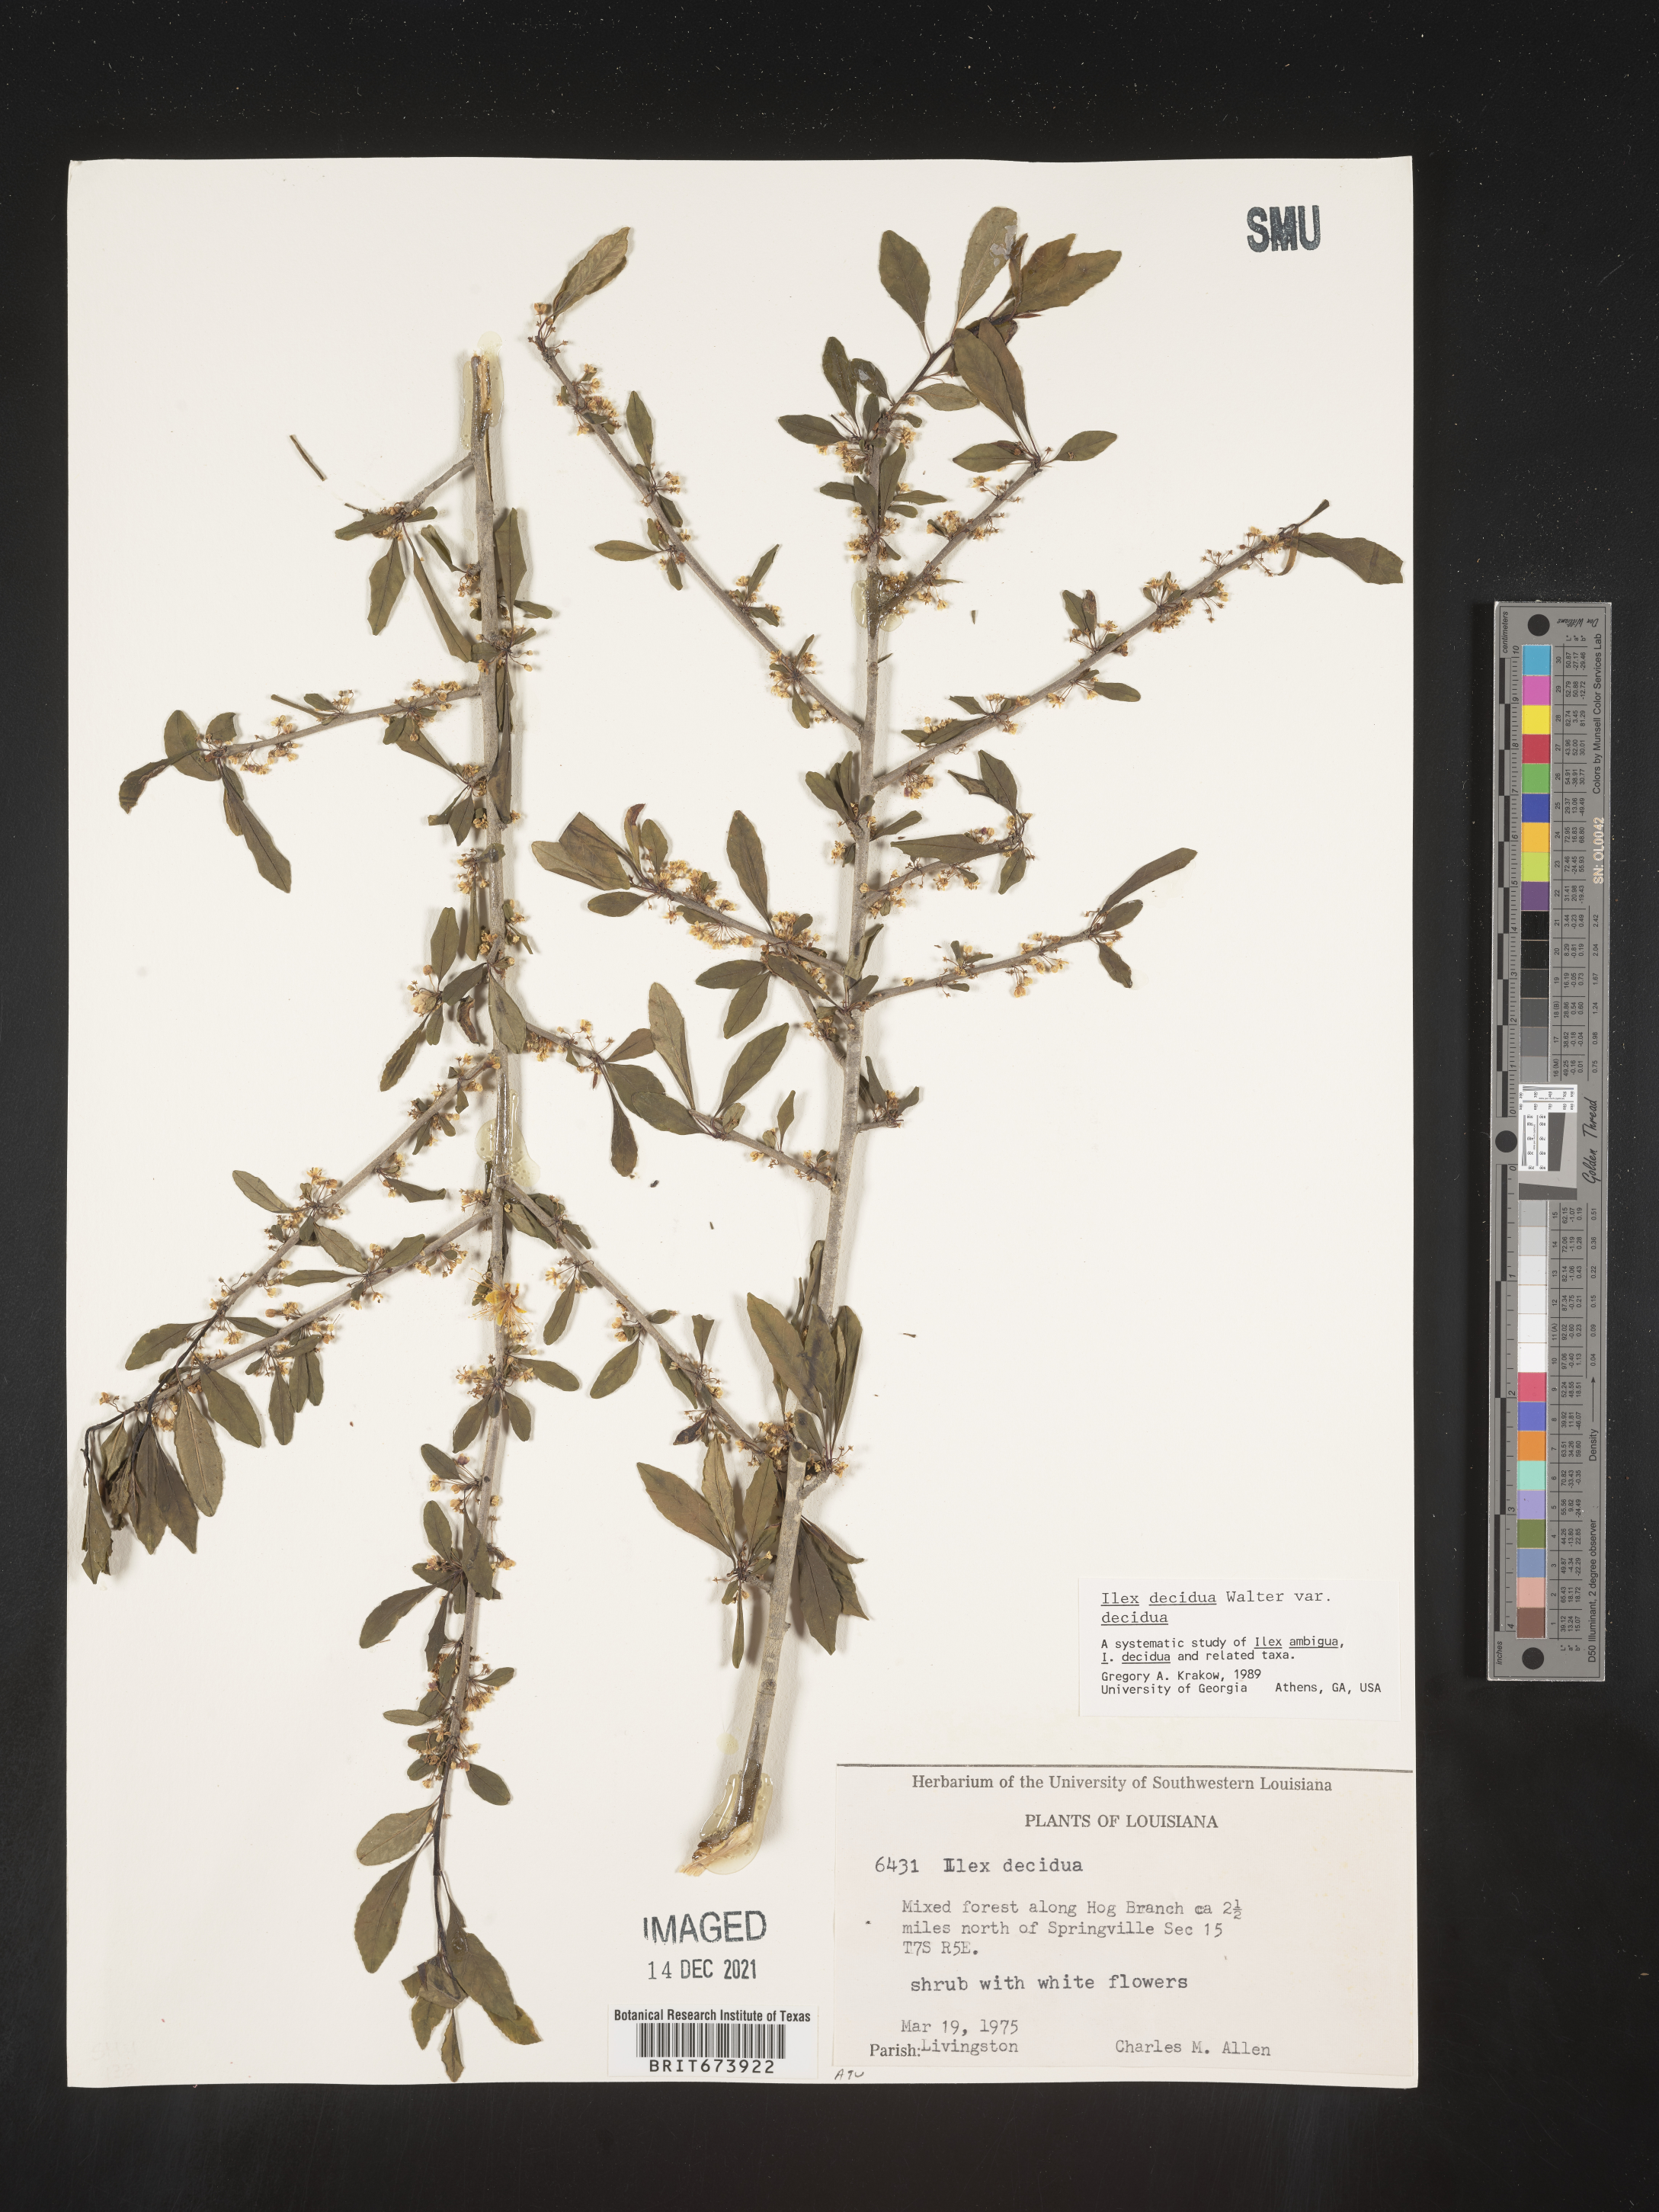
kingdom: Plantae
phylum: Tracheophyta
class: Magnoliopsida
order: Aquifoliales
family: Aquifoliaceae
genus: Ilex
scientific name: Ilex decidua
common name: Possum-haw
